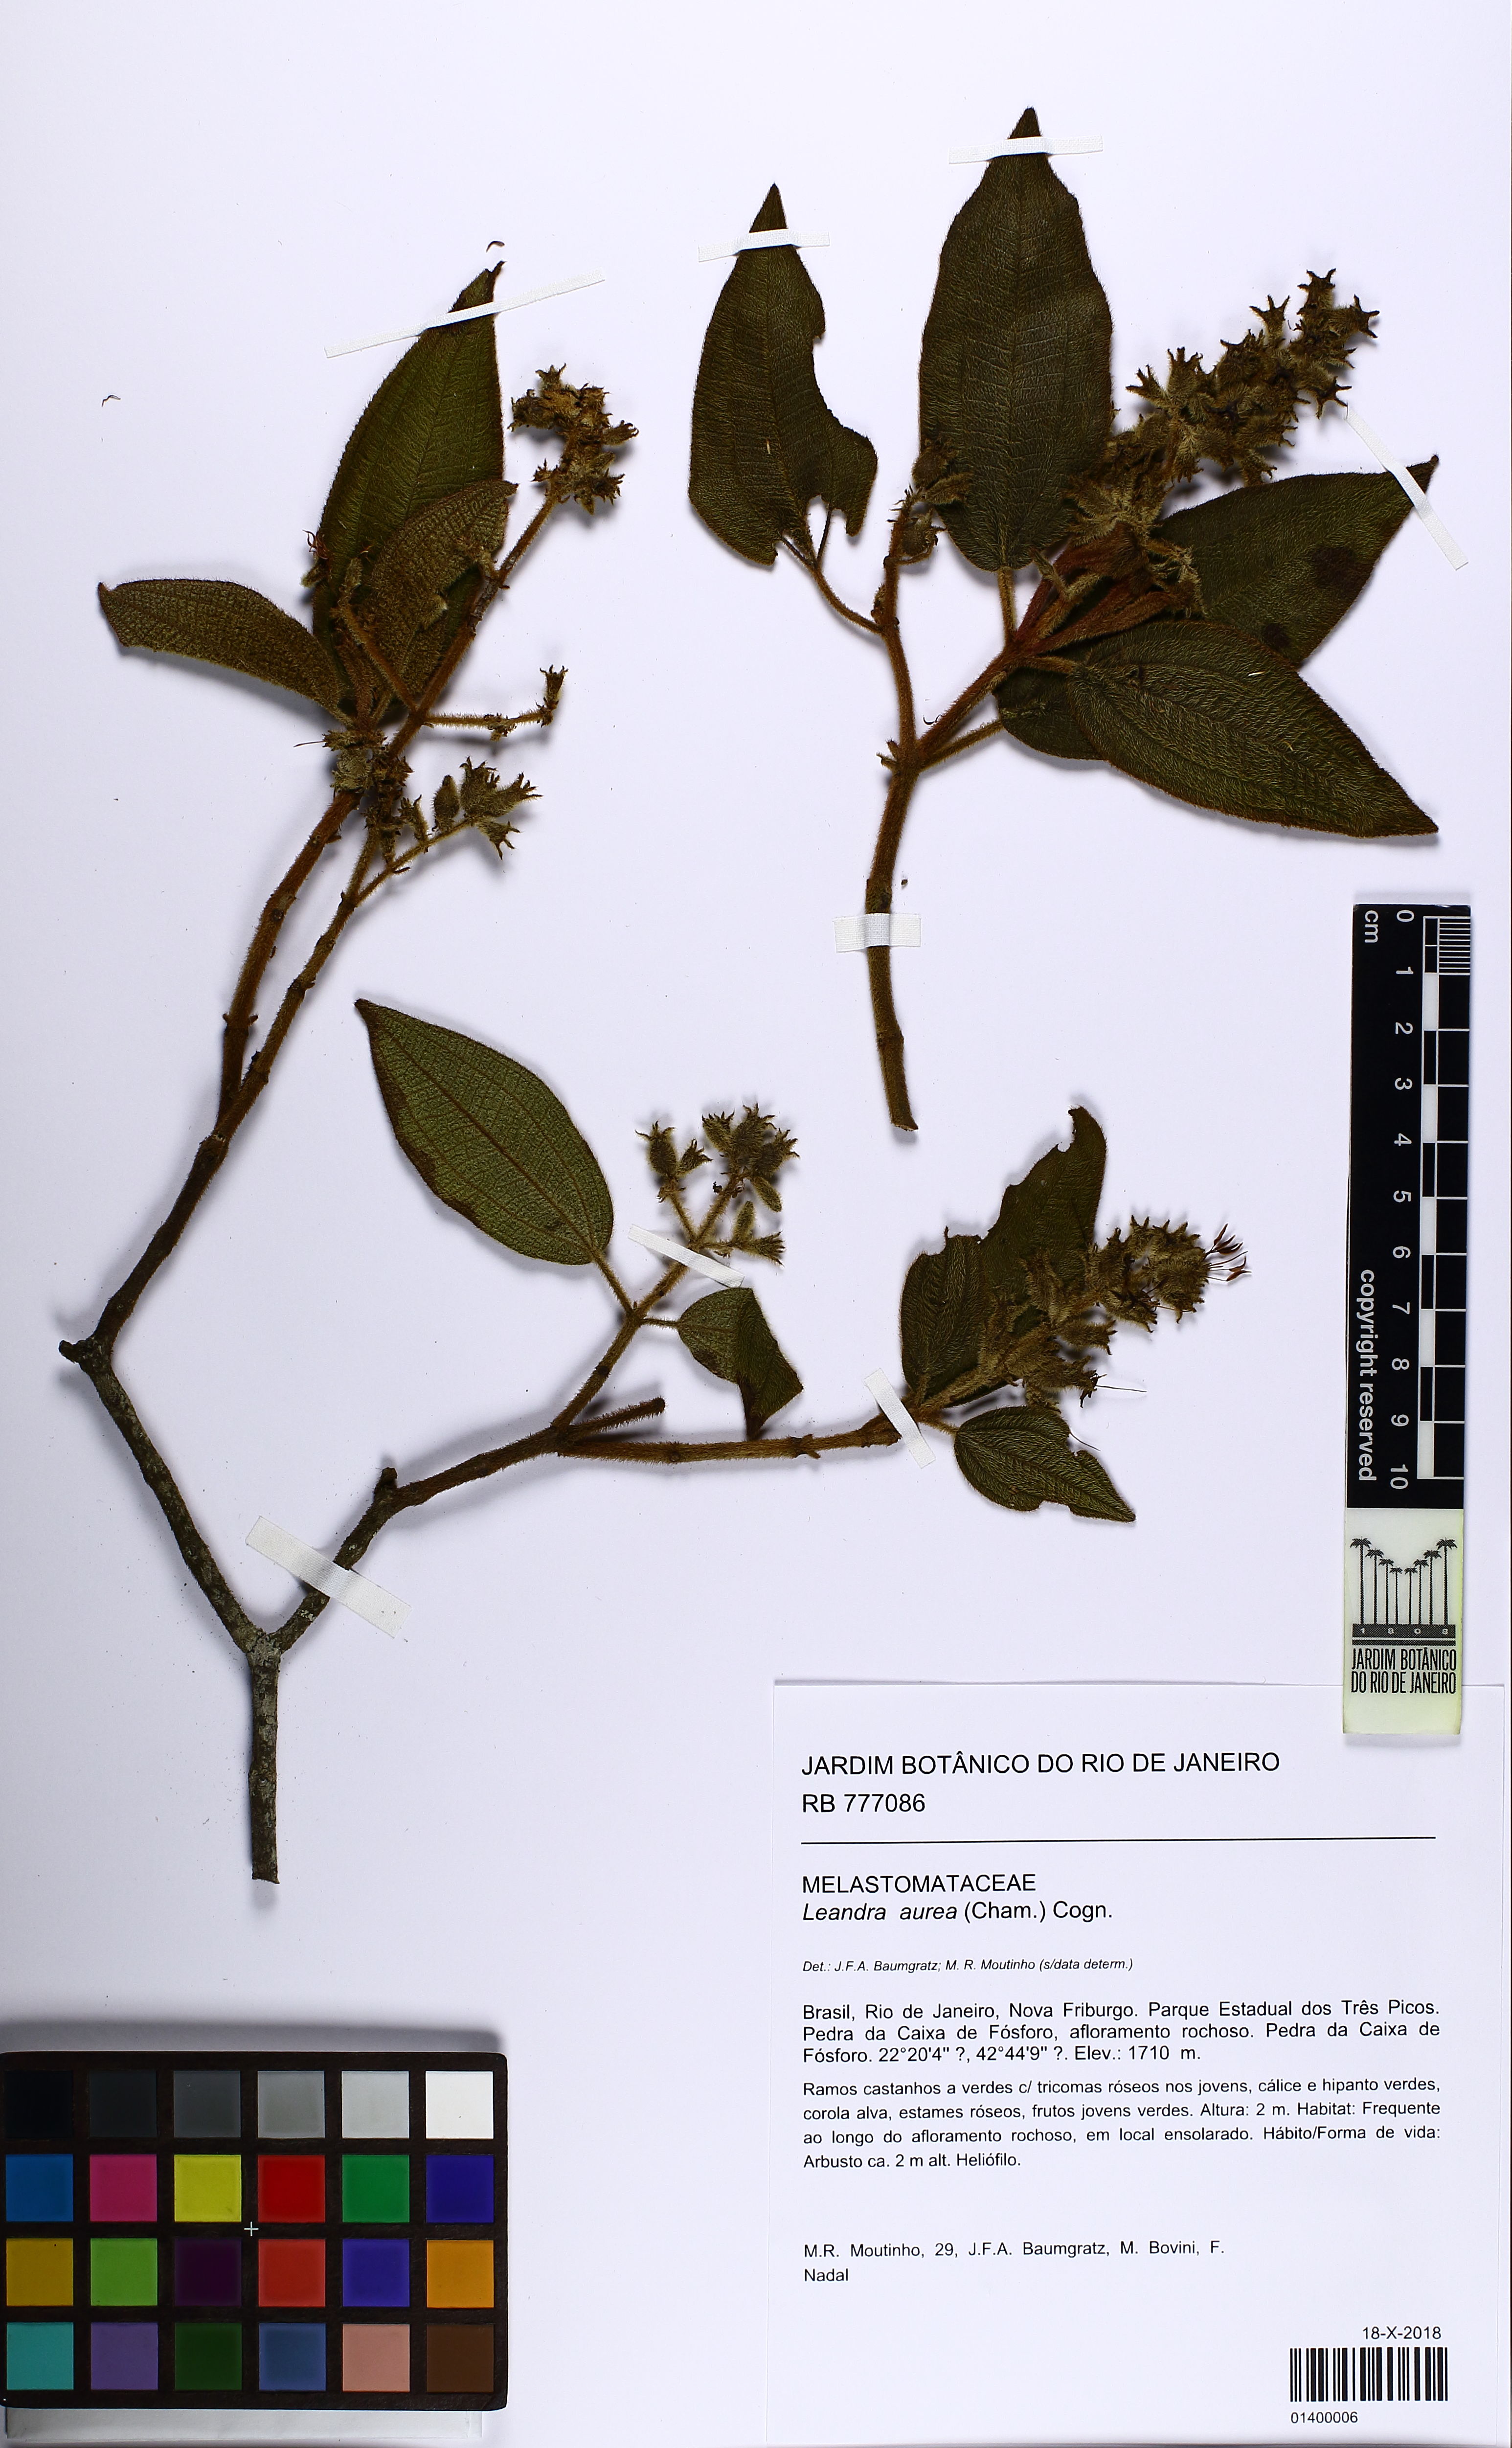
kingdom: Plantae
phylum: Tracheophyta
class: Magnoliopsida
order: Myrtales
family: Melastomataceae
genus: Miconia
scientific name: Miconia auricoma
